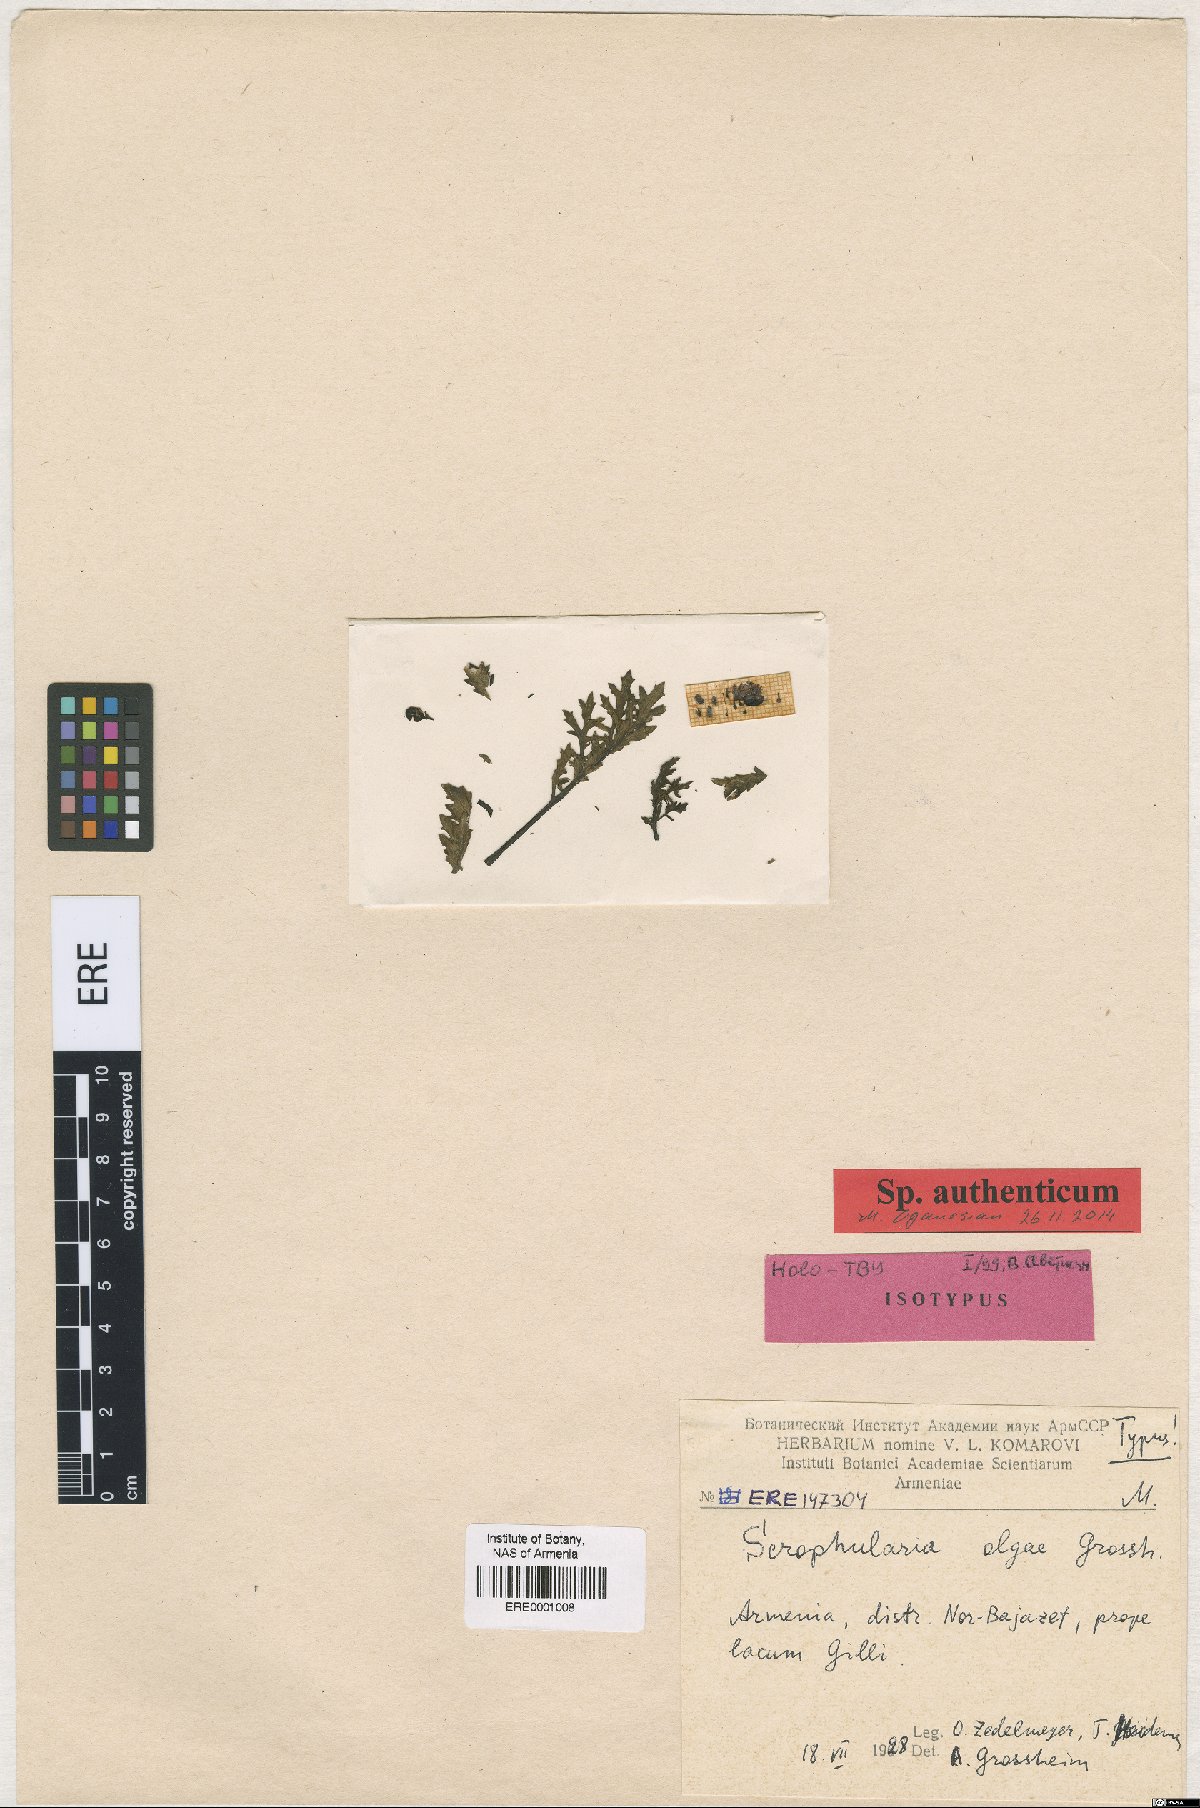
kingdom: Plantae
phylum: Tracheophyta
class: Magnoliopsida
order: Lamiales
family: Scrophulariaceae
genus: Scrophularia
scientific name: Scrophularia olgae
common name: Olga's fig-wort
